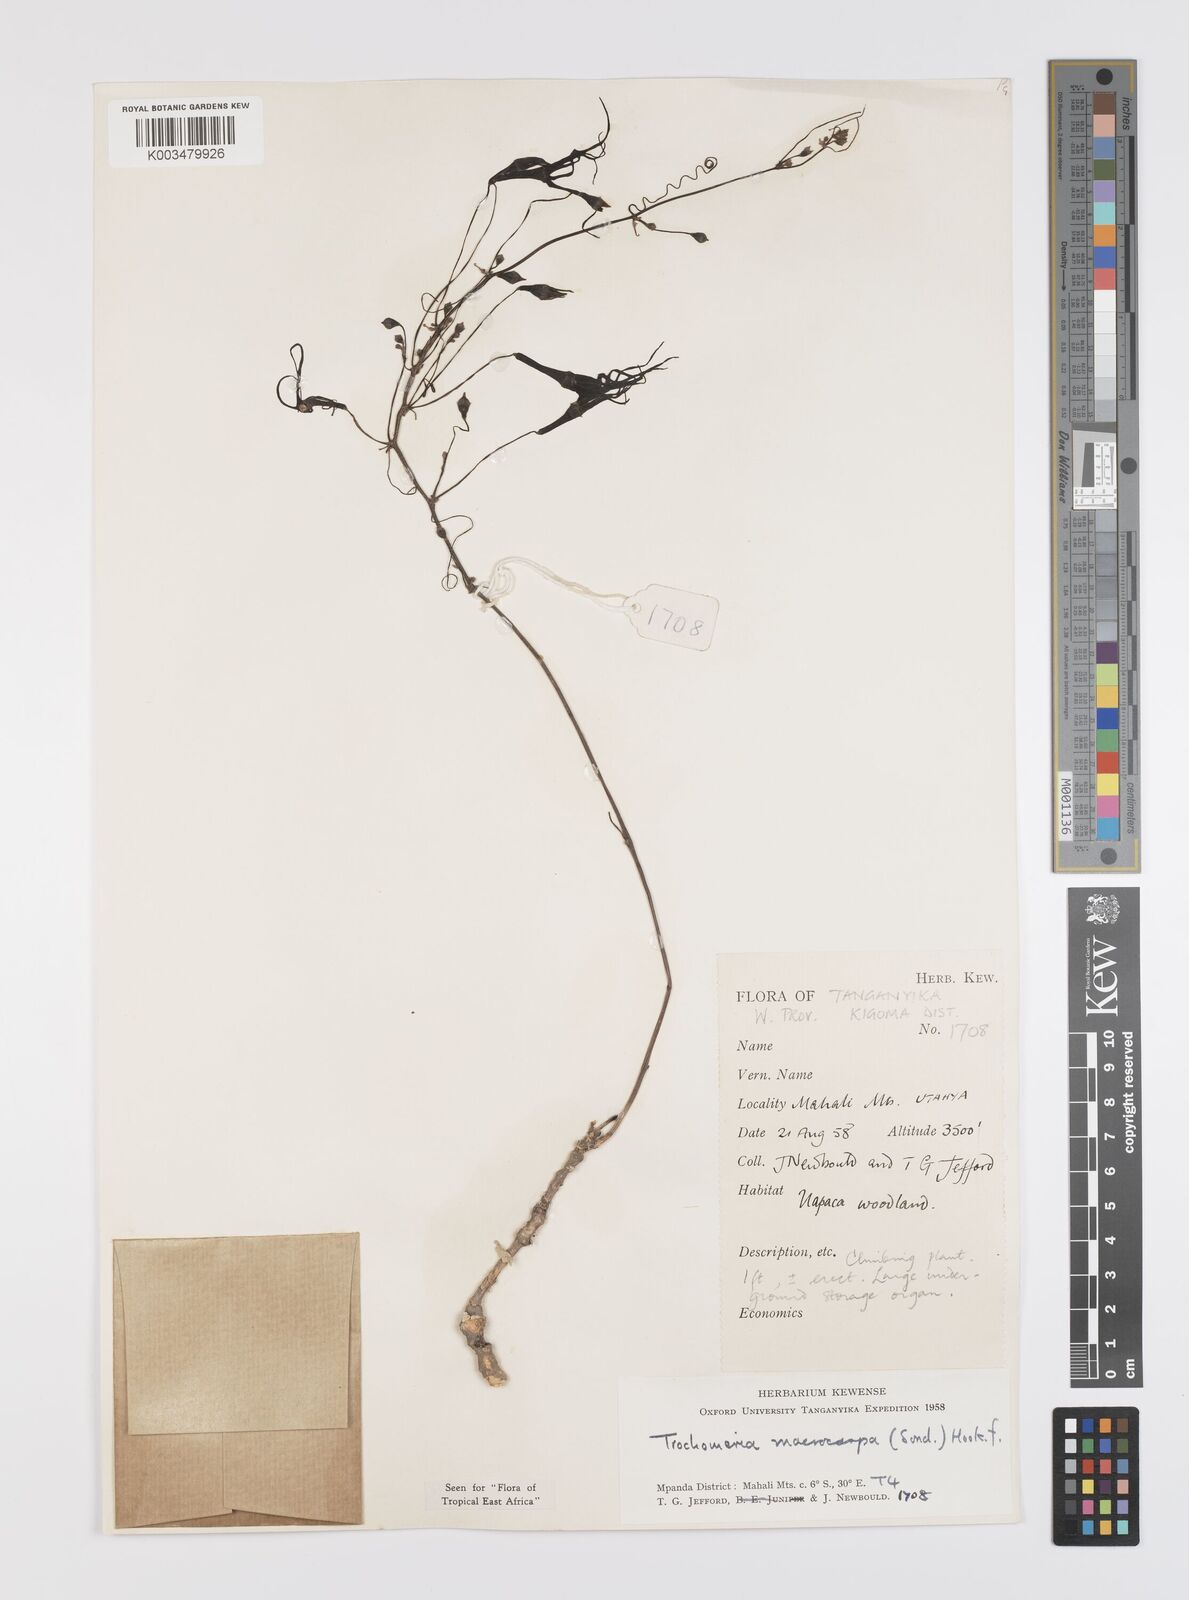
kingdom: Plantae
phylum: Tracheophyta
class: Magnoliopsida
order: Cucurbitales
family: Cucurbitaceae
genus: Trochomeria
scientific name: Trochomeria macrocarpa
